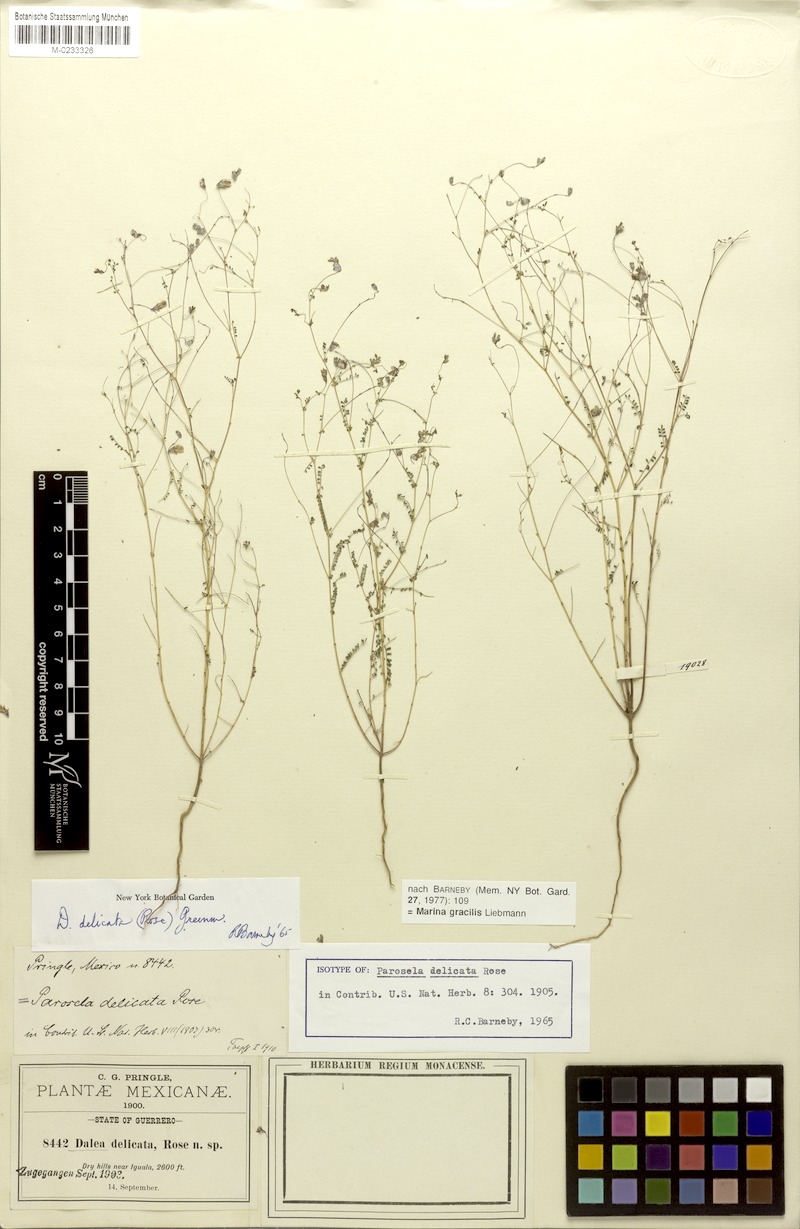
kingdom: Plantae
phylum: Tracheophyta
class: Magnoliopsida
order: Fabales
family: Fabaceae
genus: Marina
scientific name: Marina gracilis
